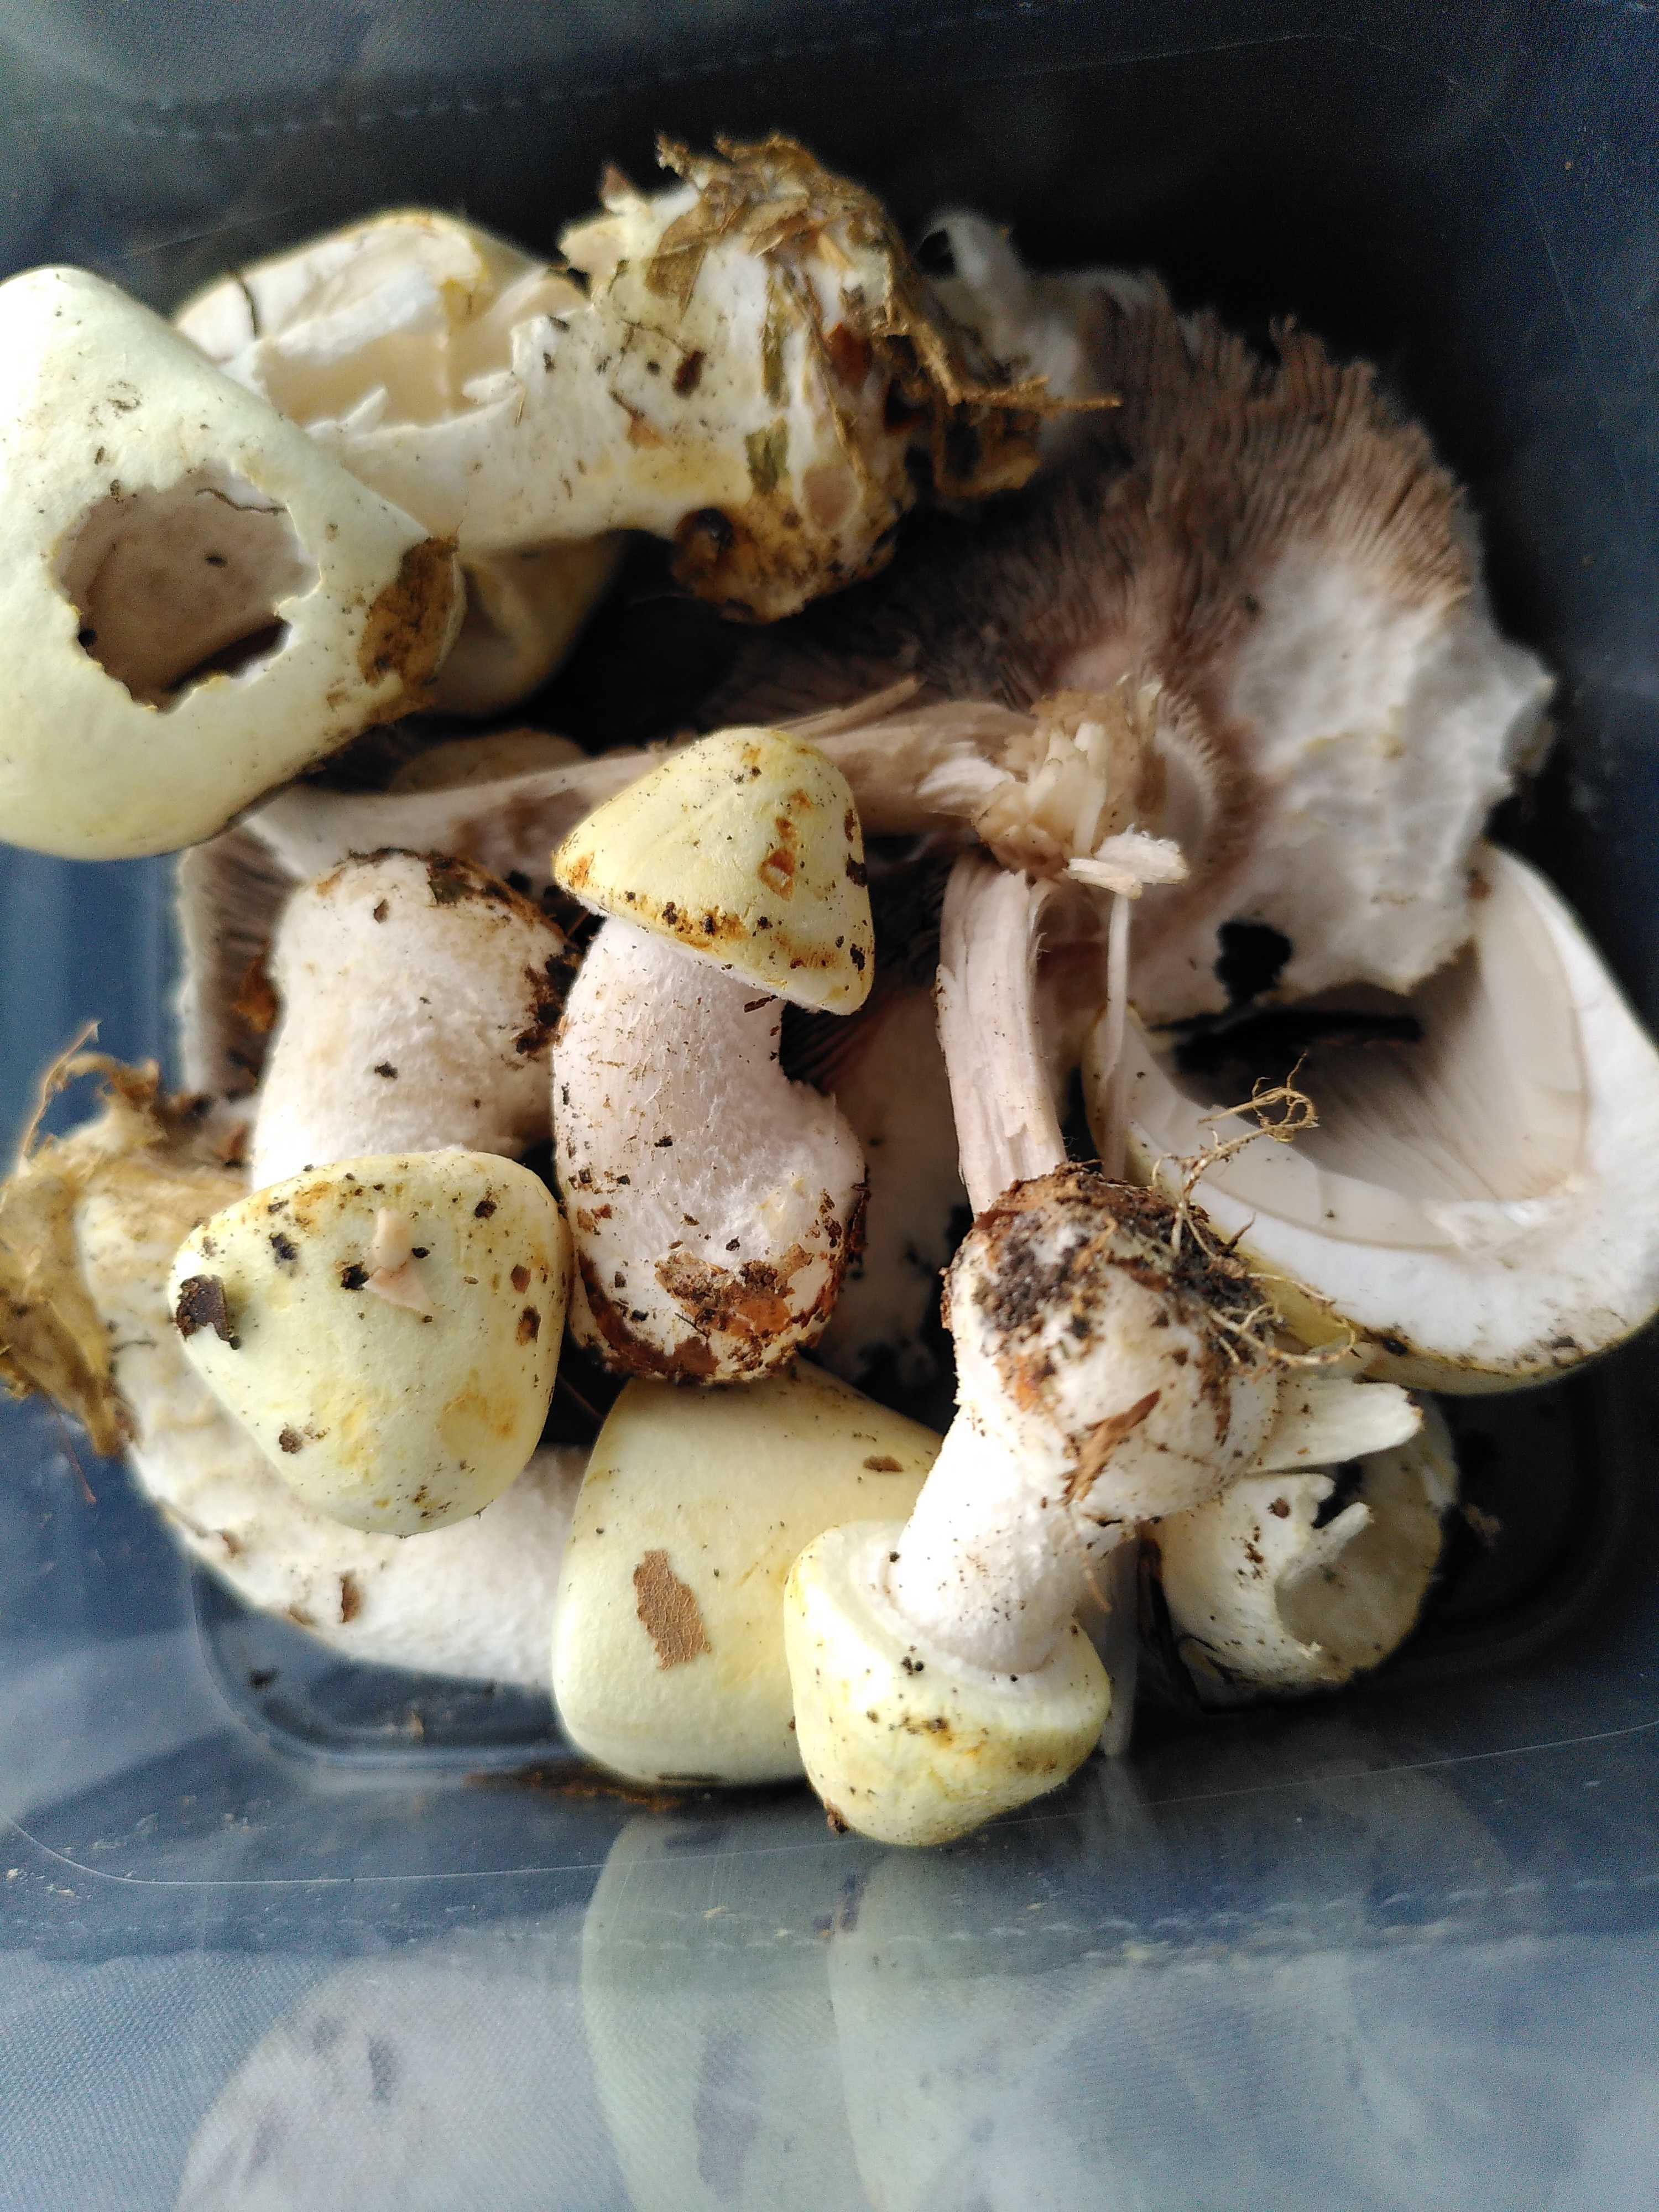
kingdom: Fungi
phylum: Basidiomycota
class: Agaricomycetes
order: Agaricales
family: Agaricaceae
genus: Agaricus
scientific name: Agaricus sylvicola
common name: skiveknoldet champignon
